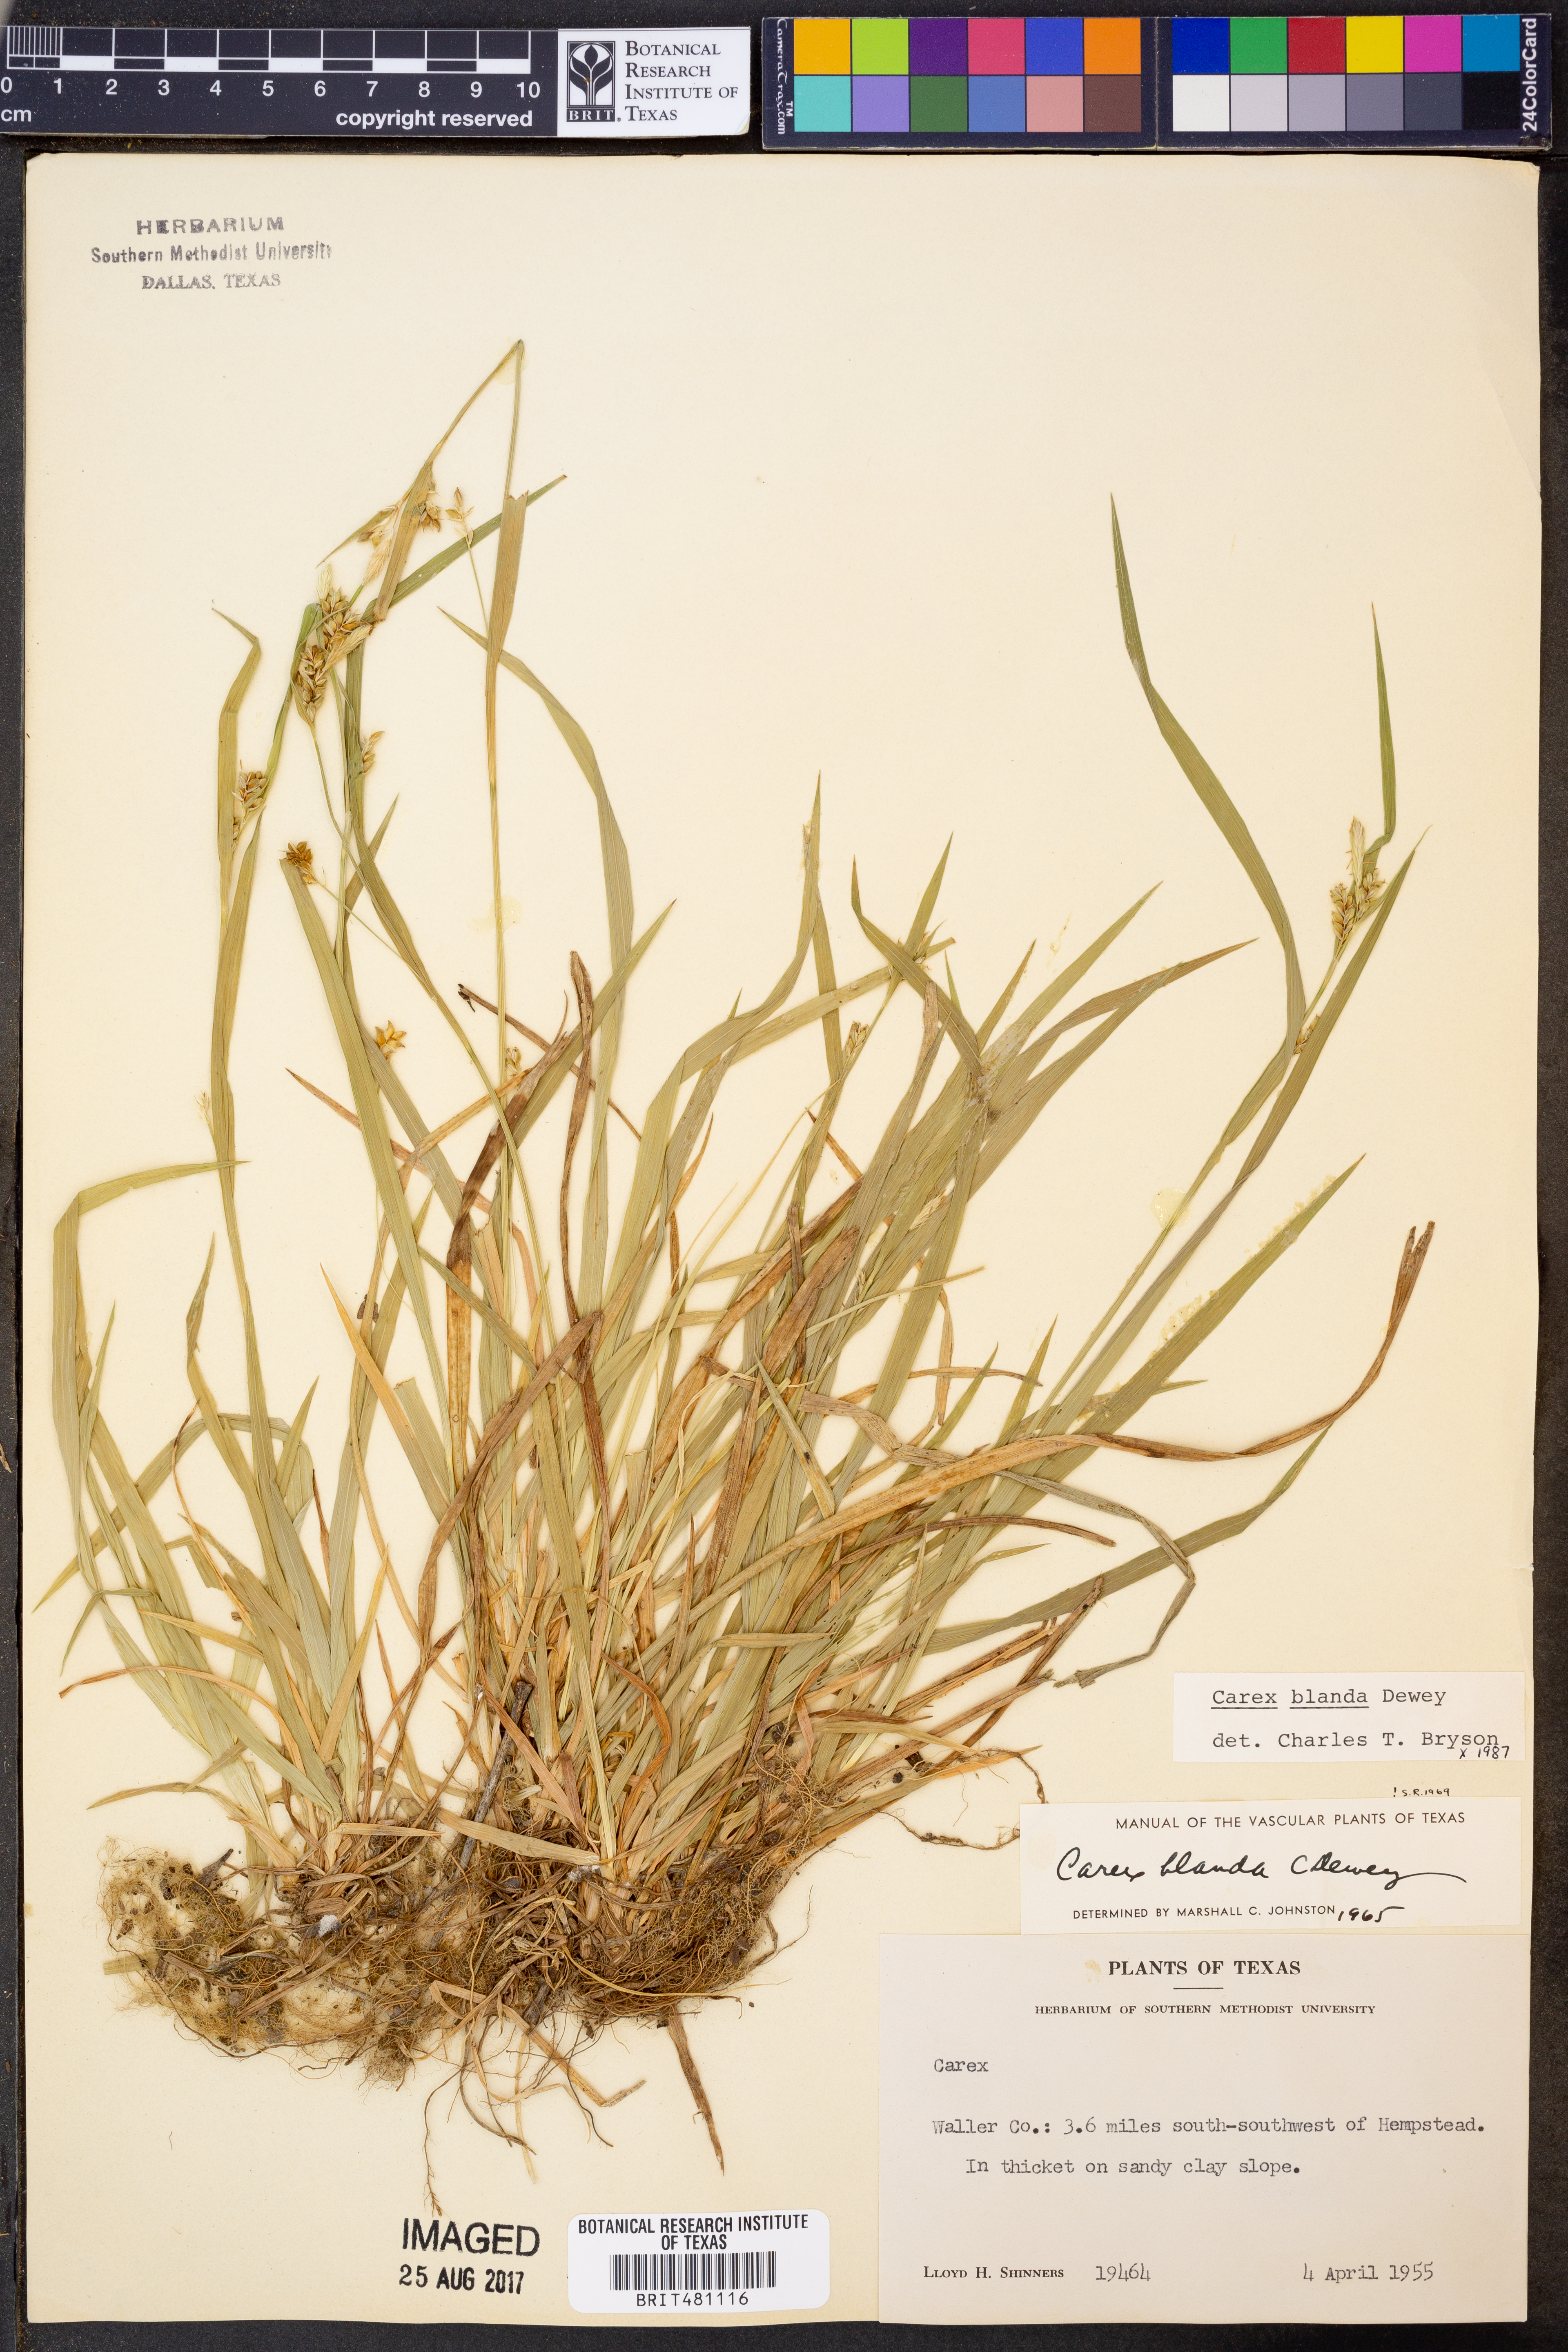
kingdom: Plantae
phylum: Tracheophyta
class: Liliopsida
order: Poales
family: Cyperaceae
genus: Carex
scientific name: Carex blanda
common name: Bland sedge
